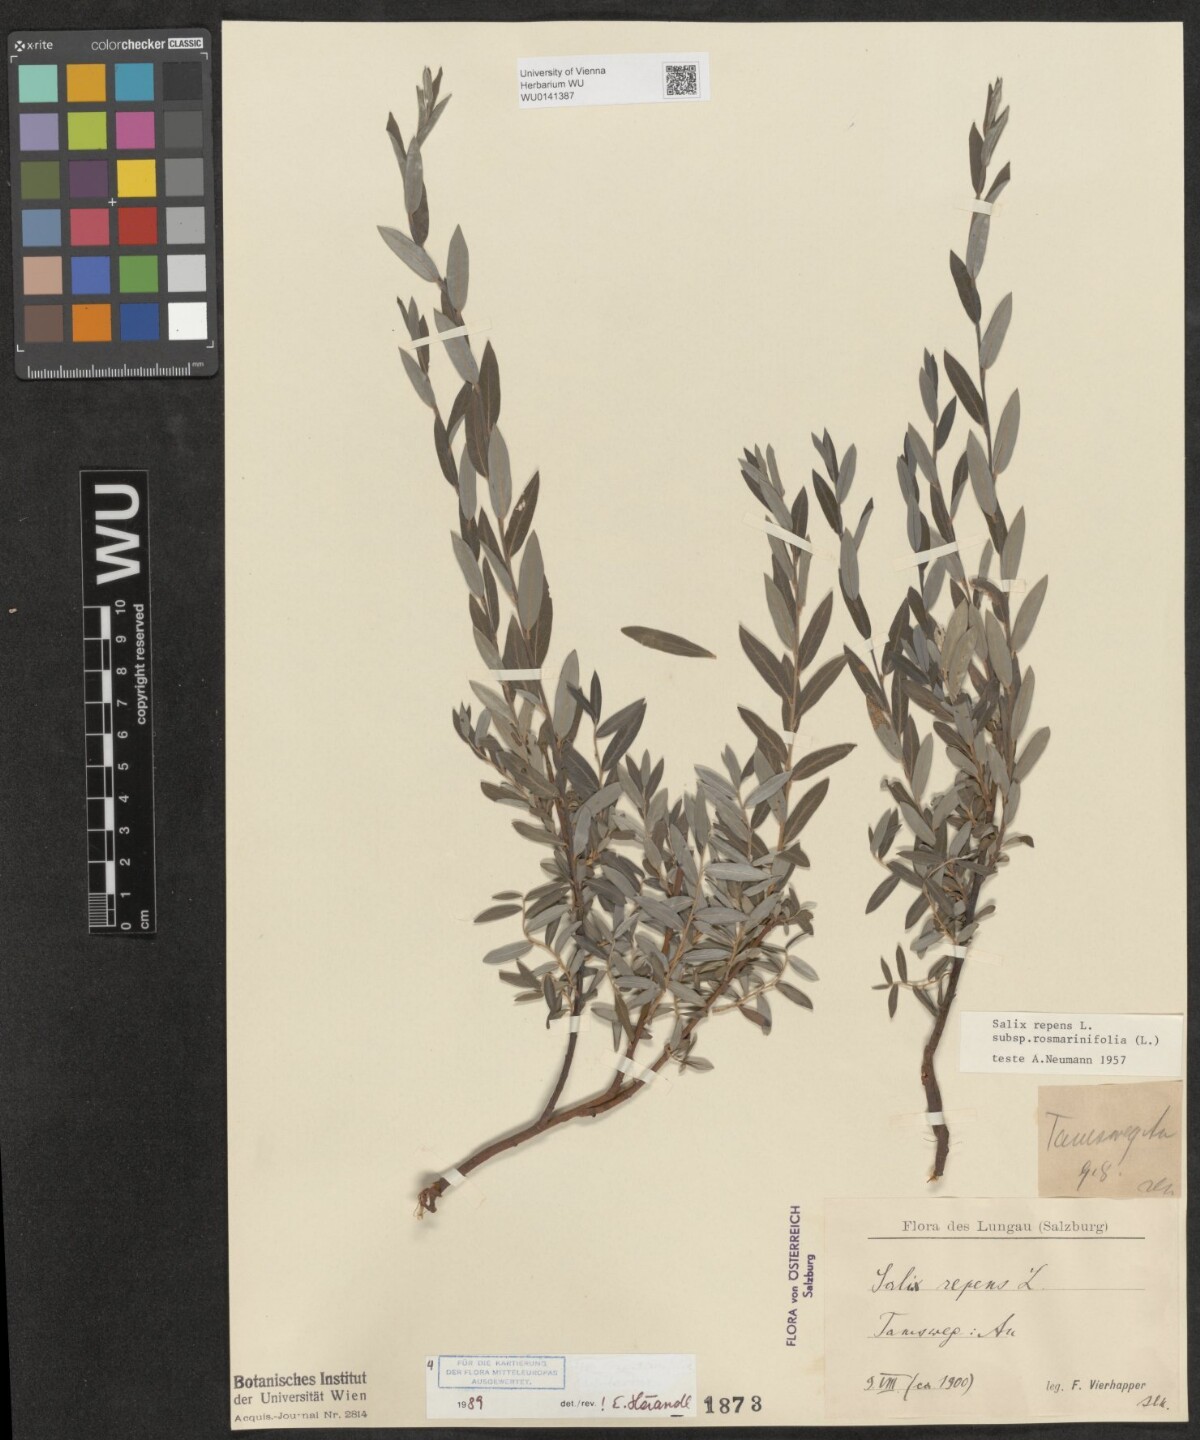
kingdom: Plantae
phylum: Tracheophyta
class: Magnoliopsida
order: Malpighiales
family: Salicaceae
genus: Salix
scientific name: Salix repens
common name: Creeping willow
